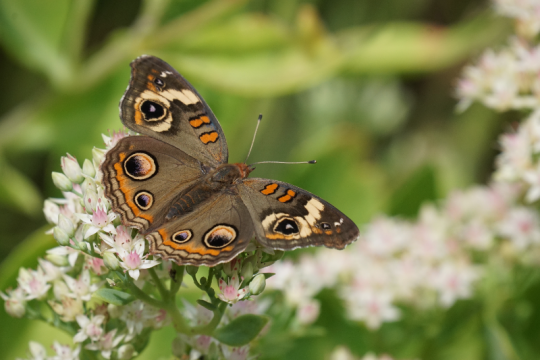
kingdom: Animalia
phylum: Arthropoda
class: Insecta
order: Lepidoptera
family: Nymphalidae
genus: Junonia
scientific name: Junonia coenia
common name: Common Buckeye
